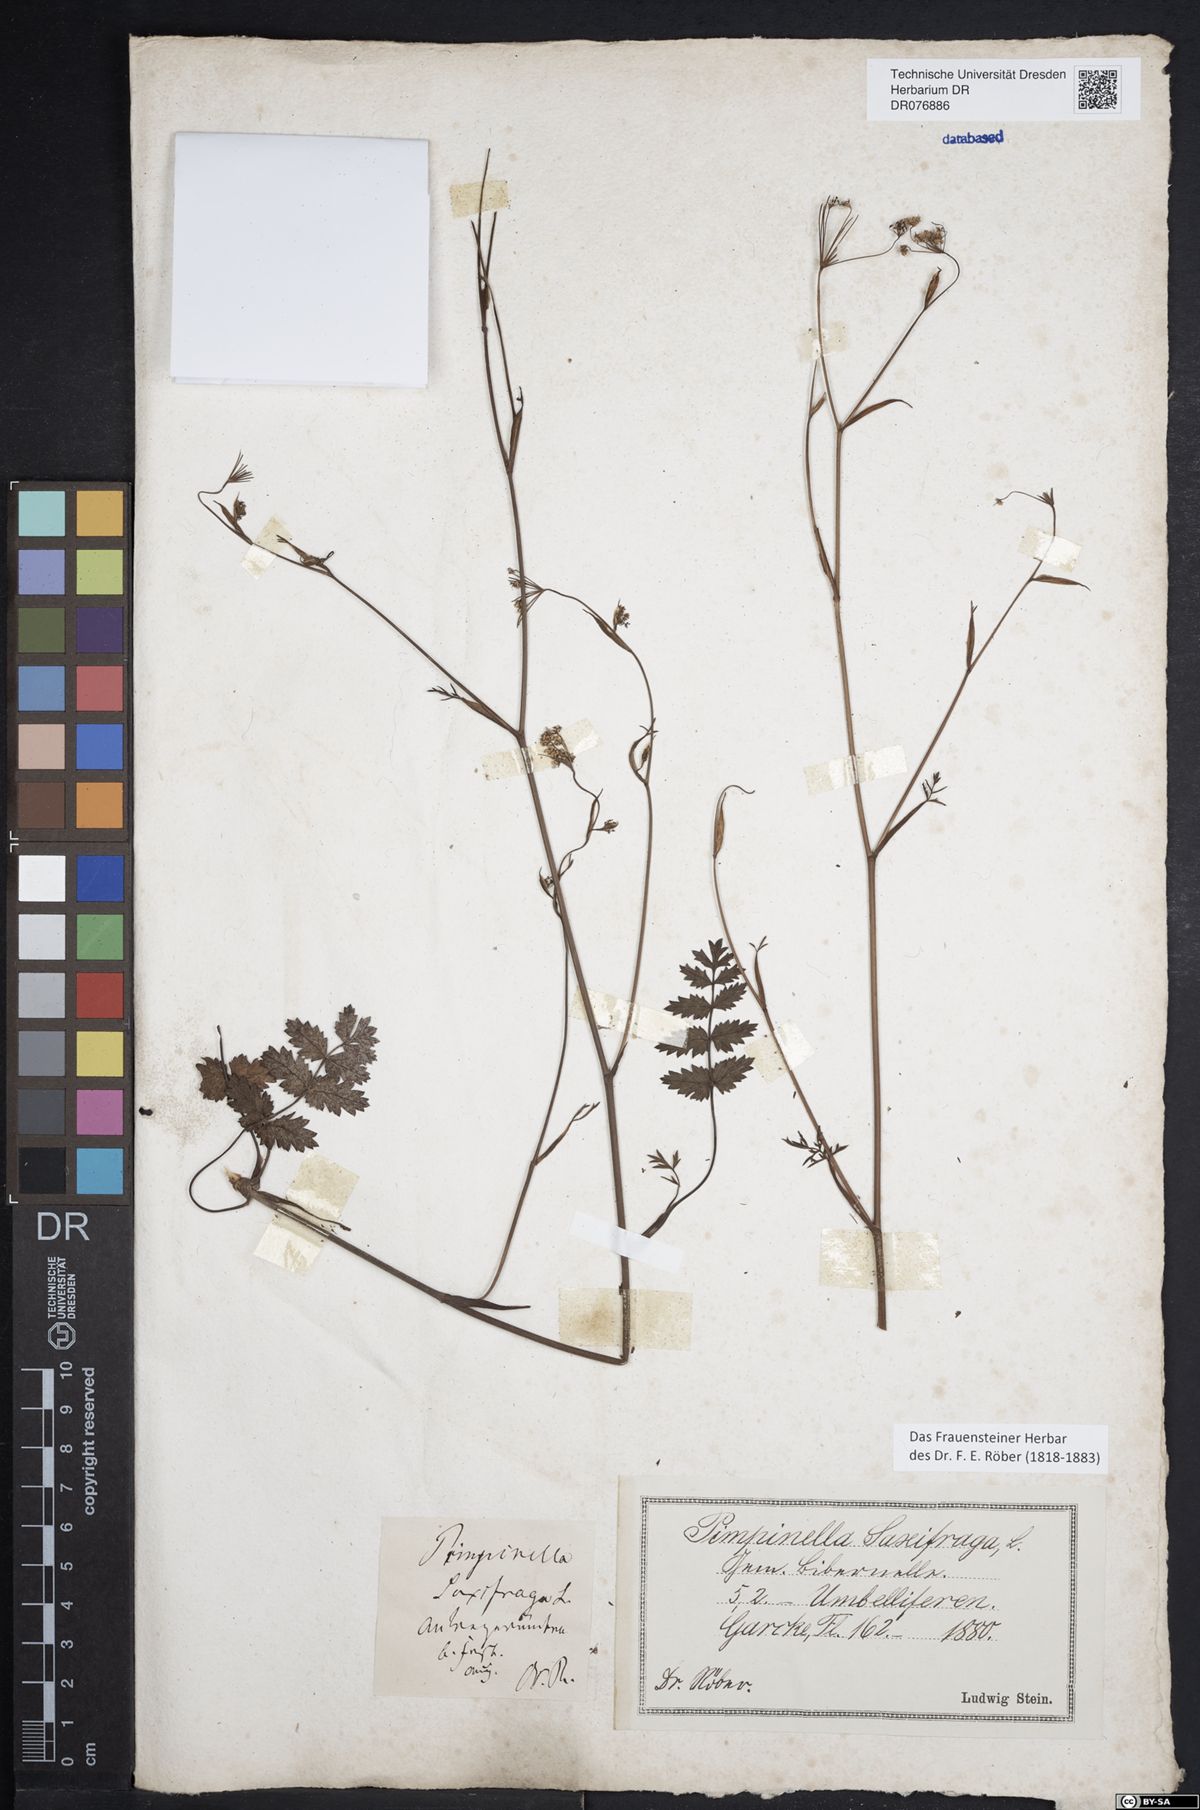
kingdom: Plantae
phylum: Tracheophyta
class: Magnoliopsida
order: Apiales
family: Apiaceae
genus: Pimpinella
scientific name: Pimpinella saxifraga
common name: Burnet-saxifrage
